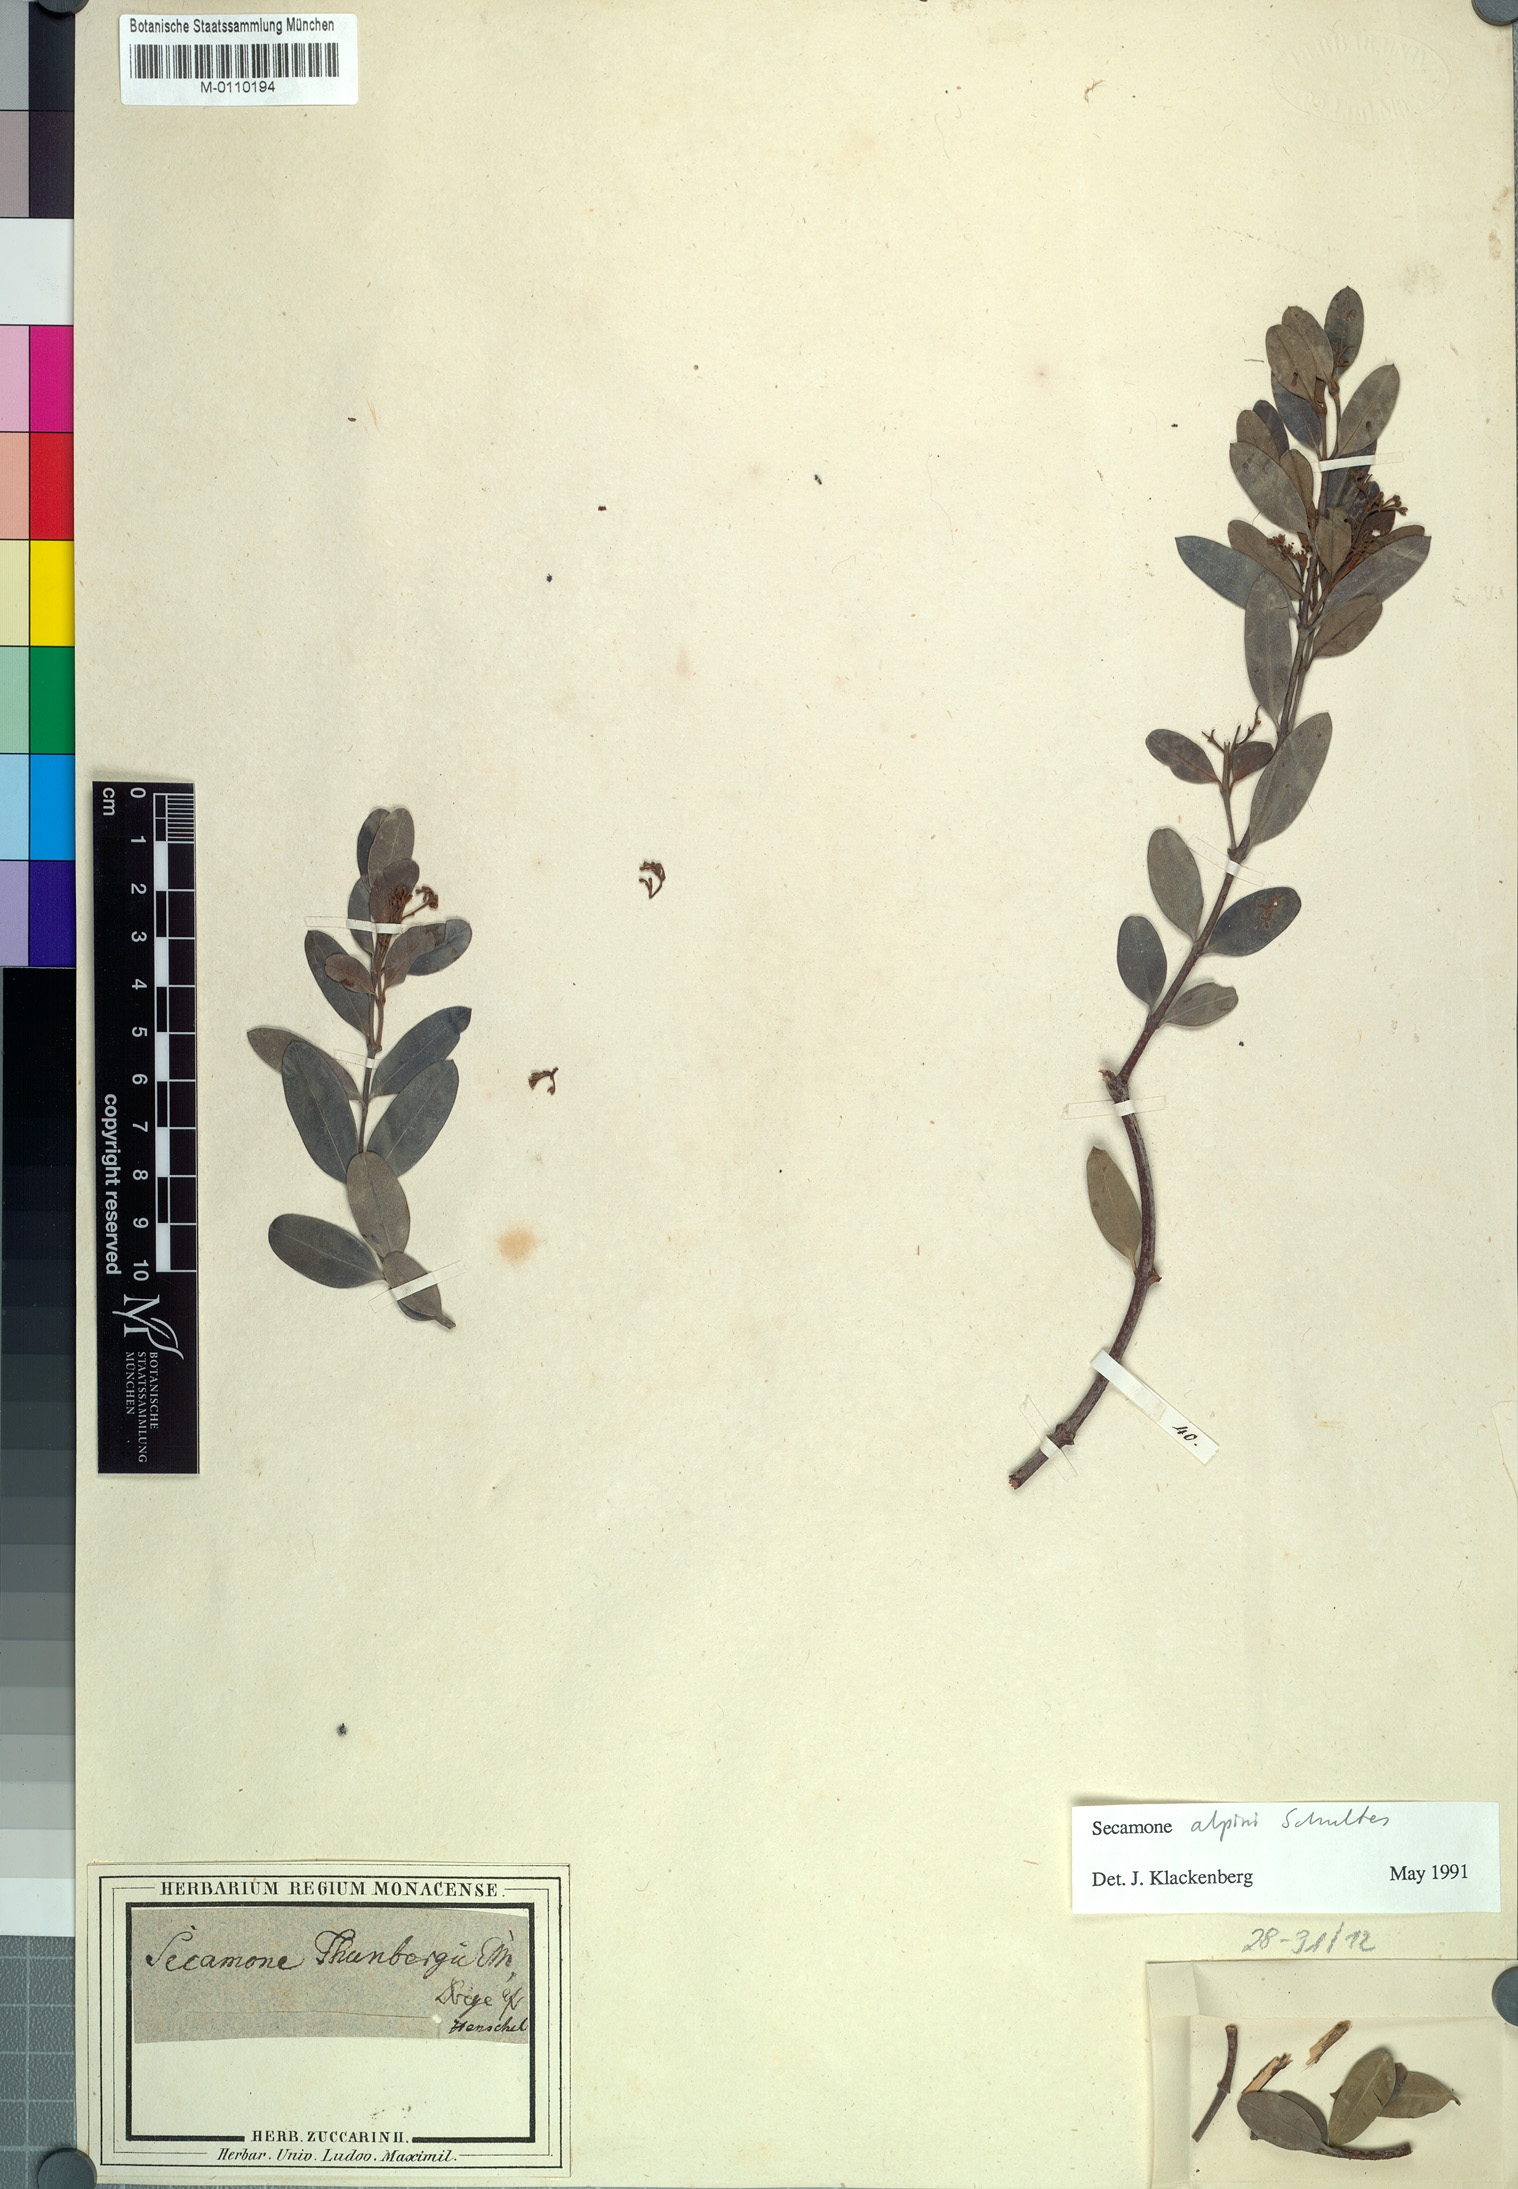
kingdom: Plantae
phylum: Tracheophyta
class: Magnoliopsida
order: Gentianales
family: Apocynaceae
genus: Secamone
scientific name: Secamone alpini
